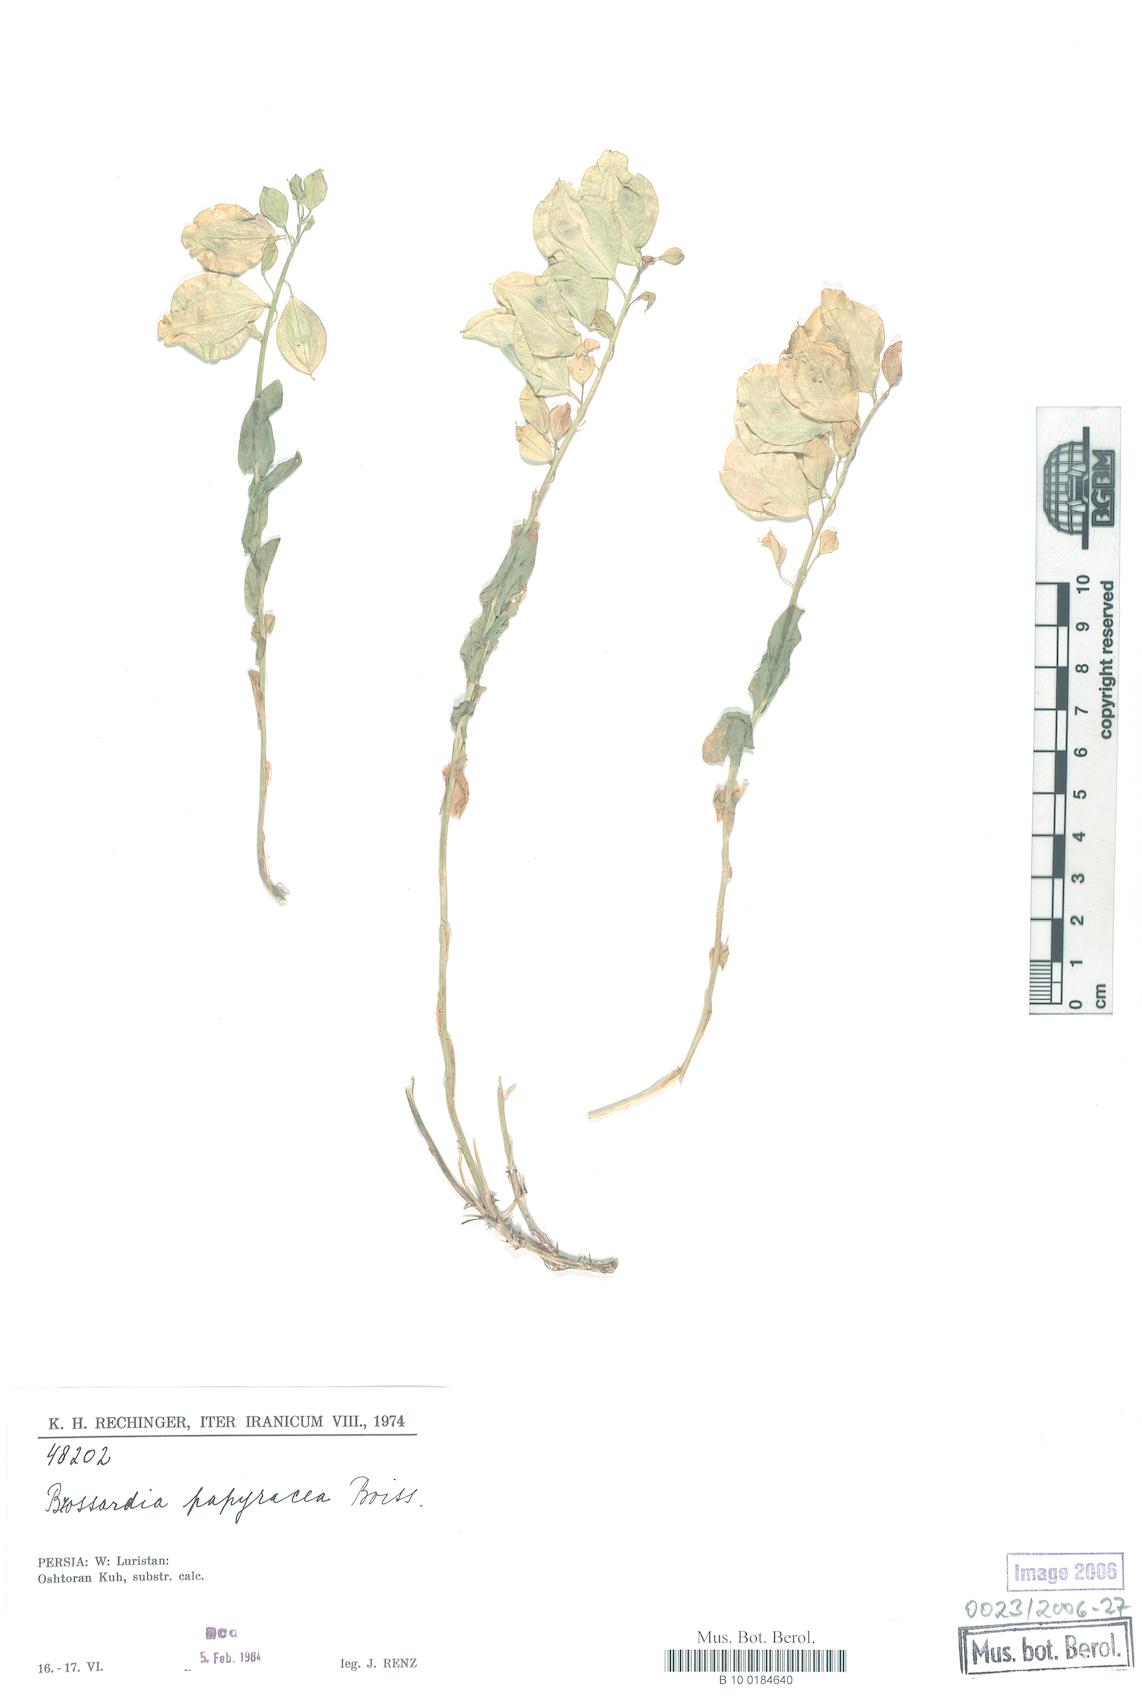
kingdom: Plantae
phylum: Tracheophyta
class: Magnoliopsida
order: Brassicales
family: Brassicaceae
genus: Noccaea
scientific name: Noccaea papyracea
